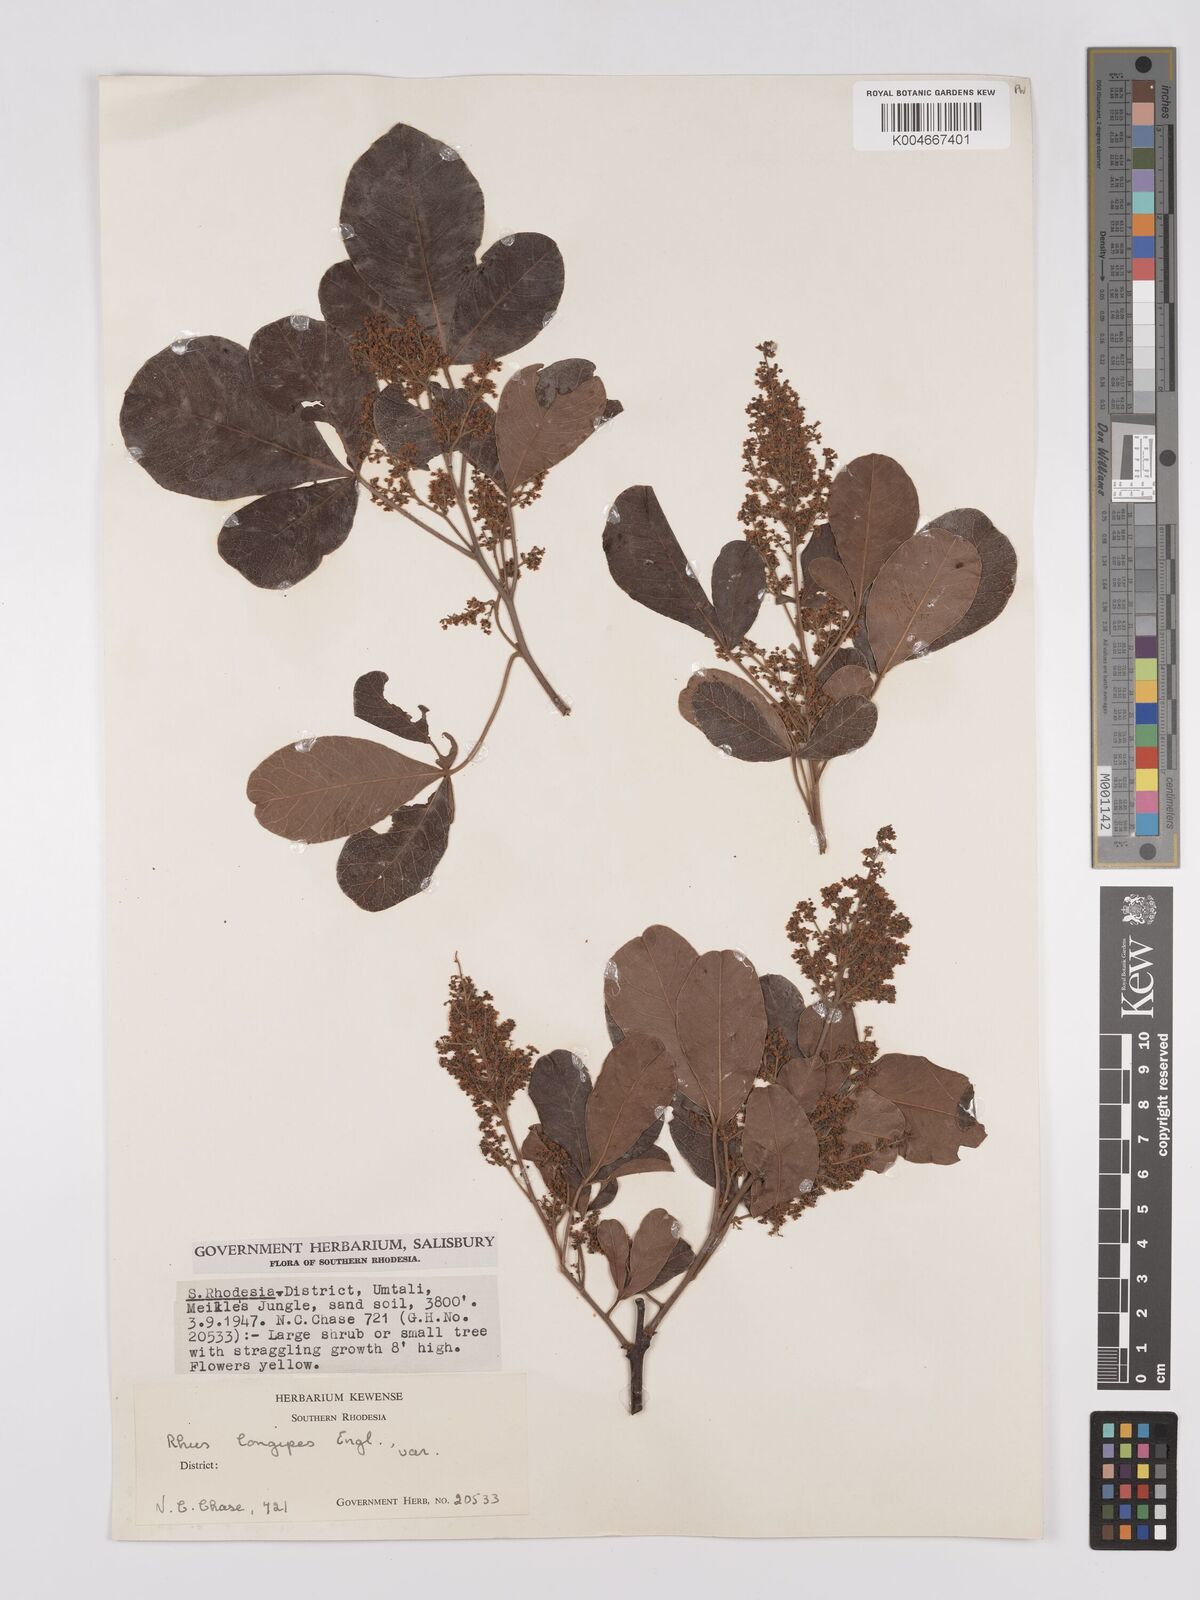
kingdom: Plantae
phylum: Tracheophyta
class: Magnoliopsida
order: Sapindales
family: Anacardiaceae
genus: Searsia
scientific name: Searsia longipes
